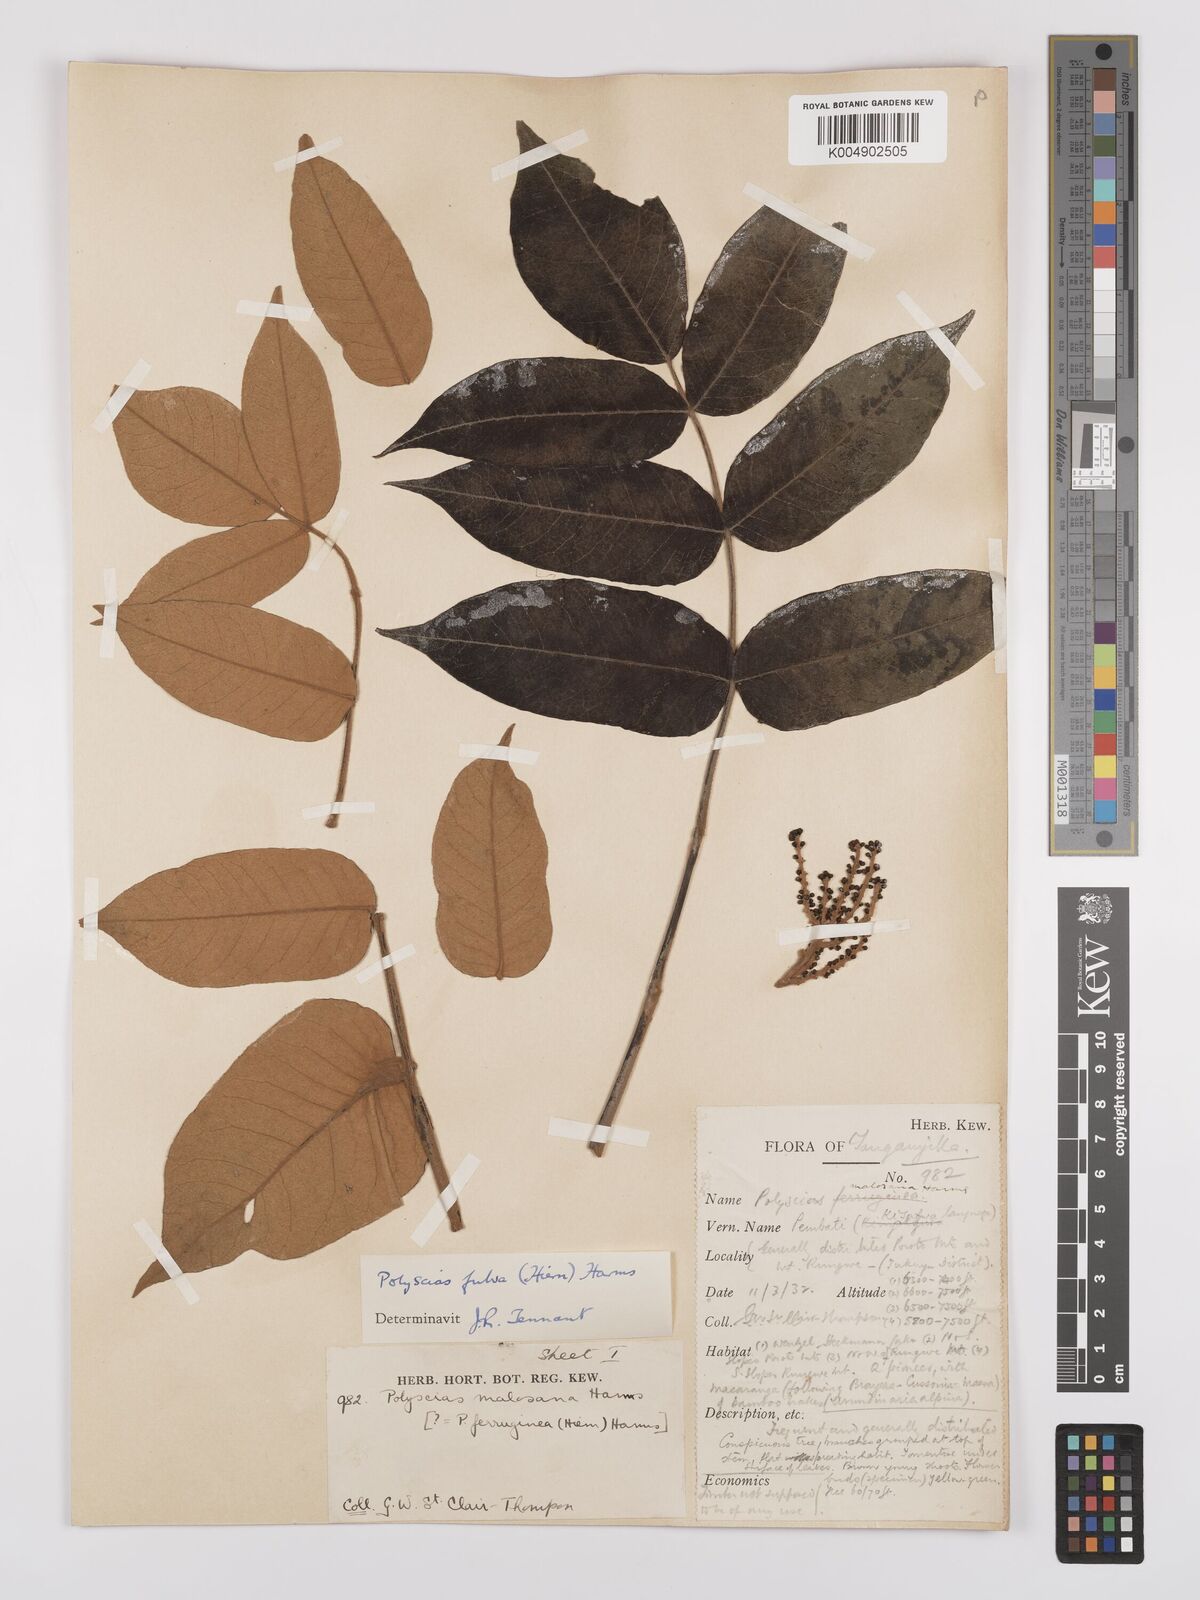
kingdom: Plantae
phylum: Tracheophyta
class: Magnoliopsida
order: Apiales
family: Araliaceae
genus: Polyscias
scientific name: Polyscias fulva
